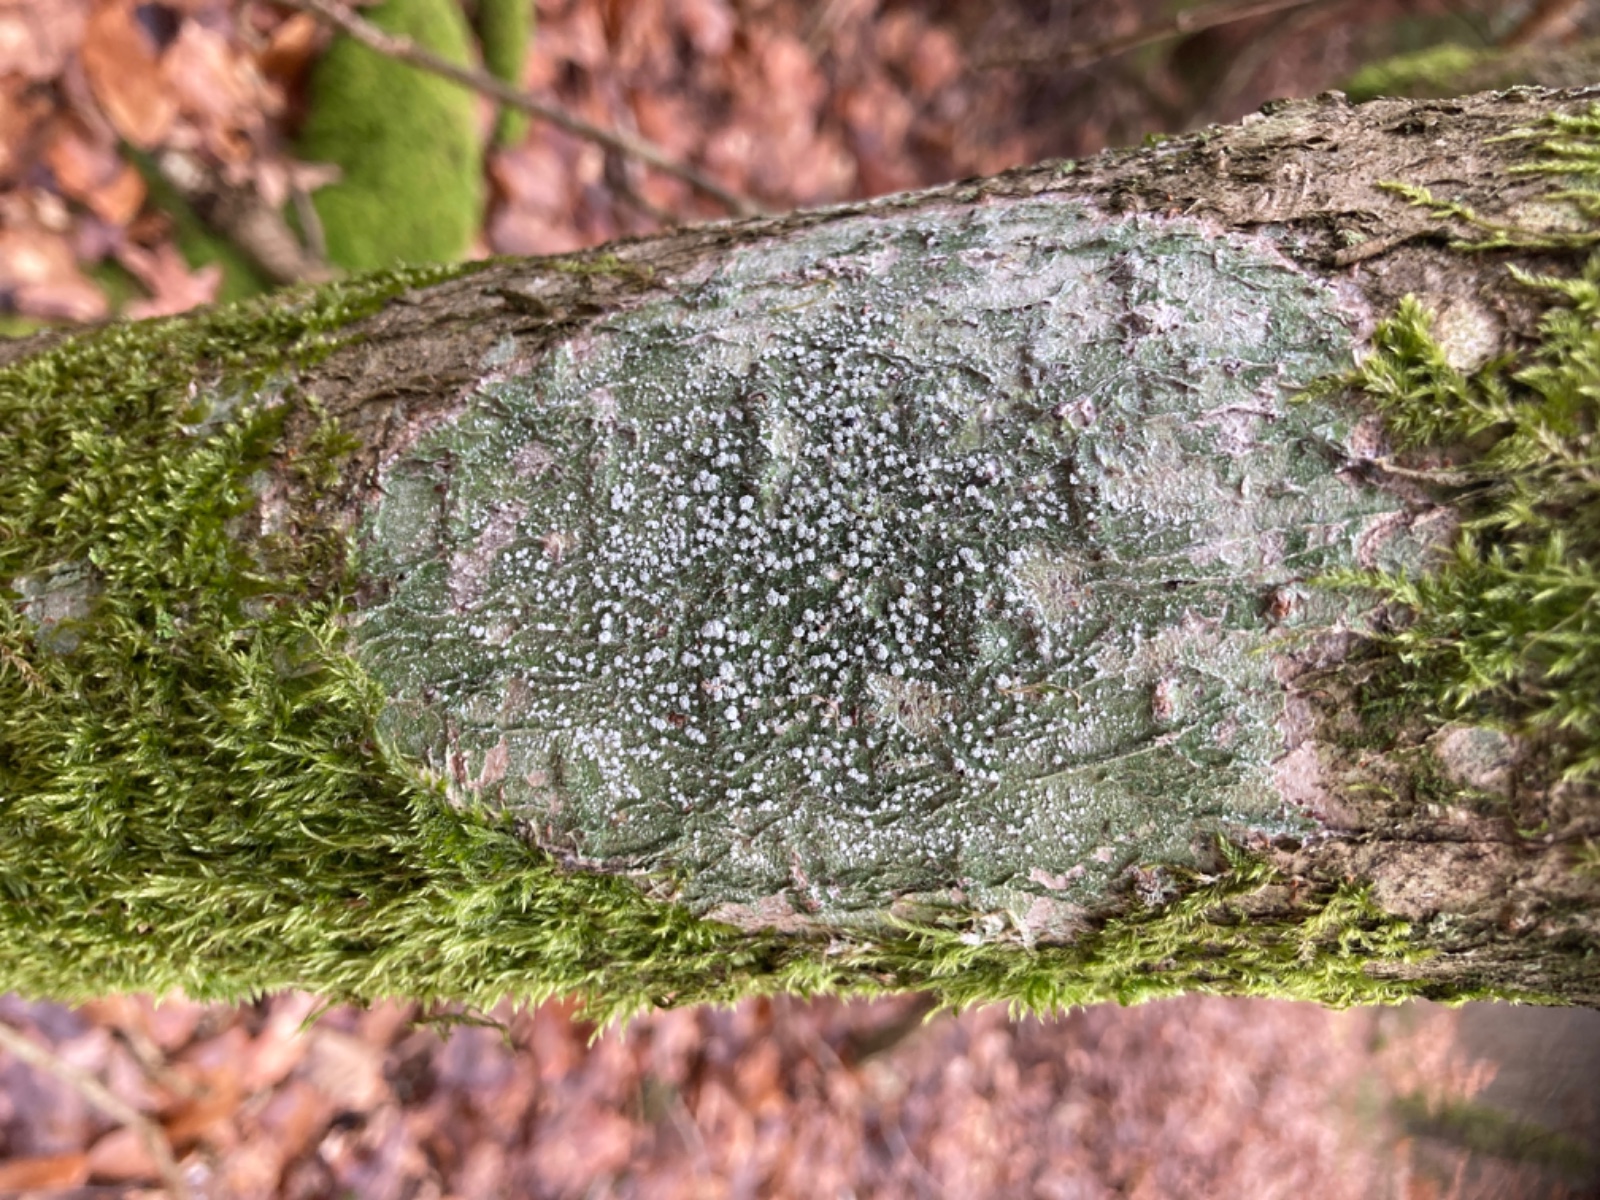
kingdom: Fungi
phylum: Ascomycota
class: Lecanoromycetes
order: Pertusariales
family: Pertusariaceae
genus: Lepra
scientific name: Lepra
